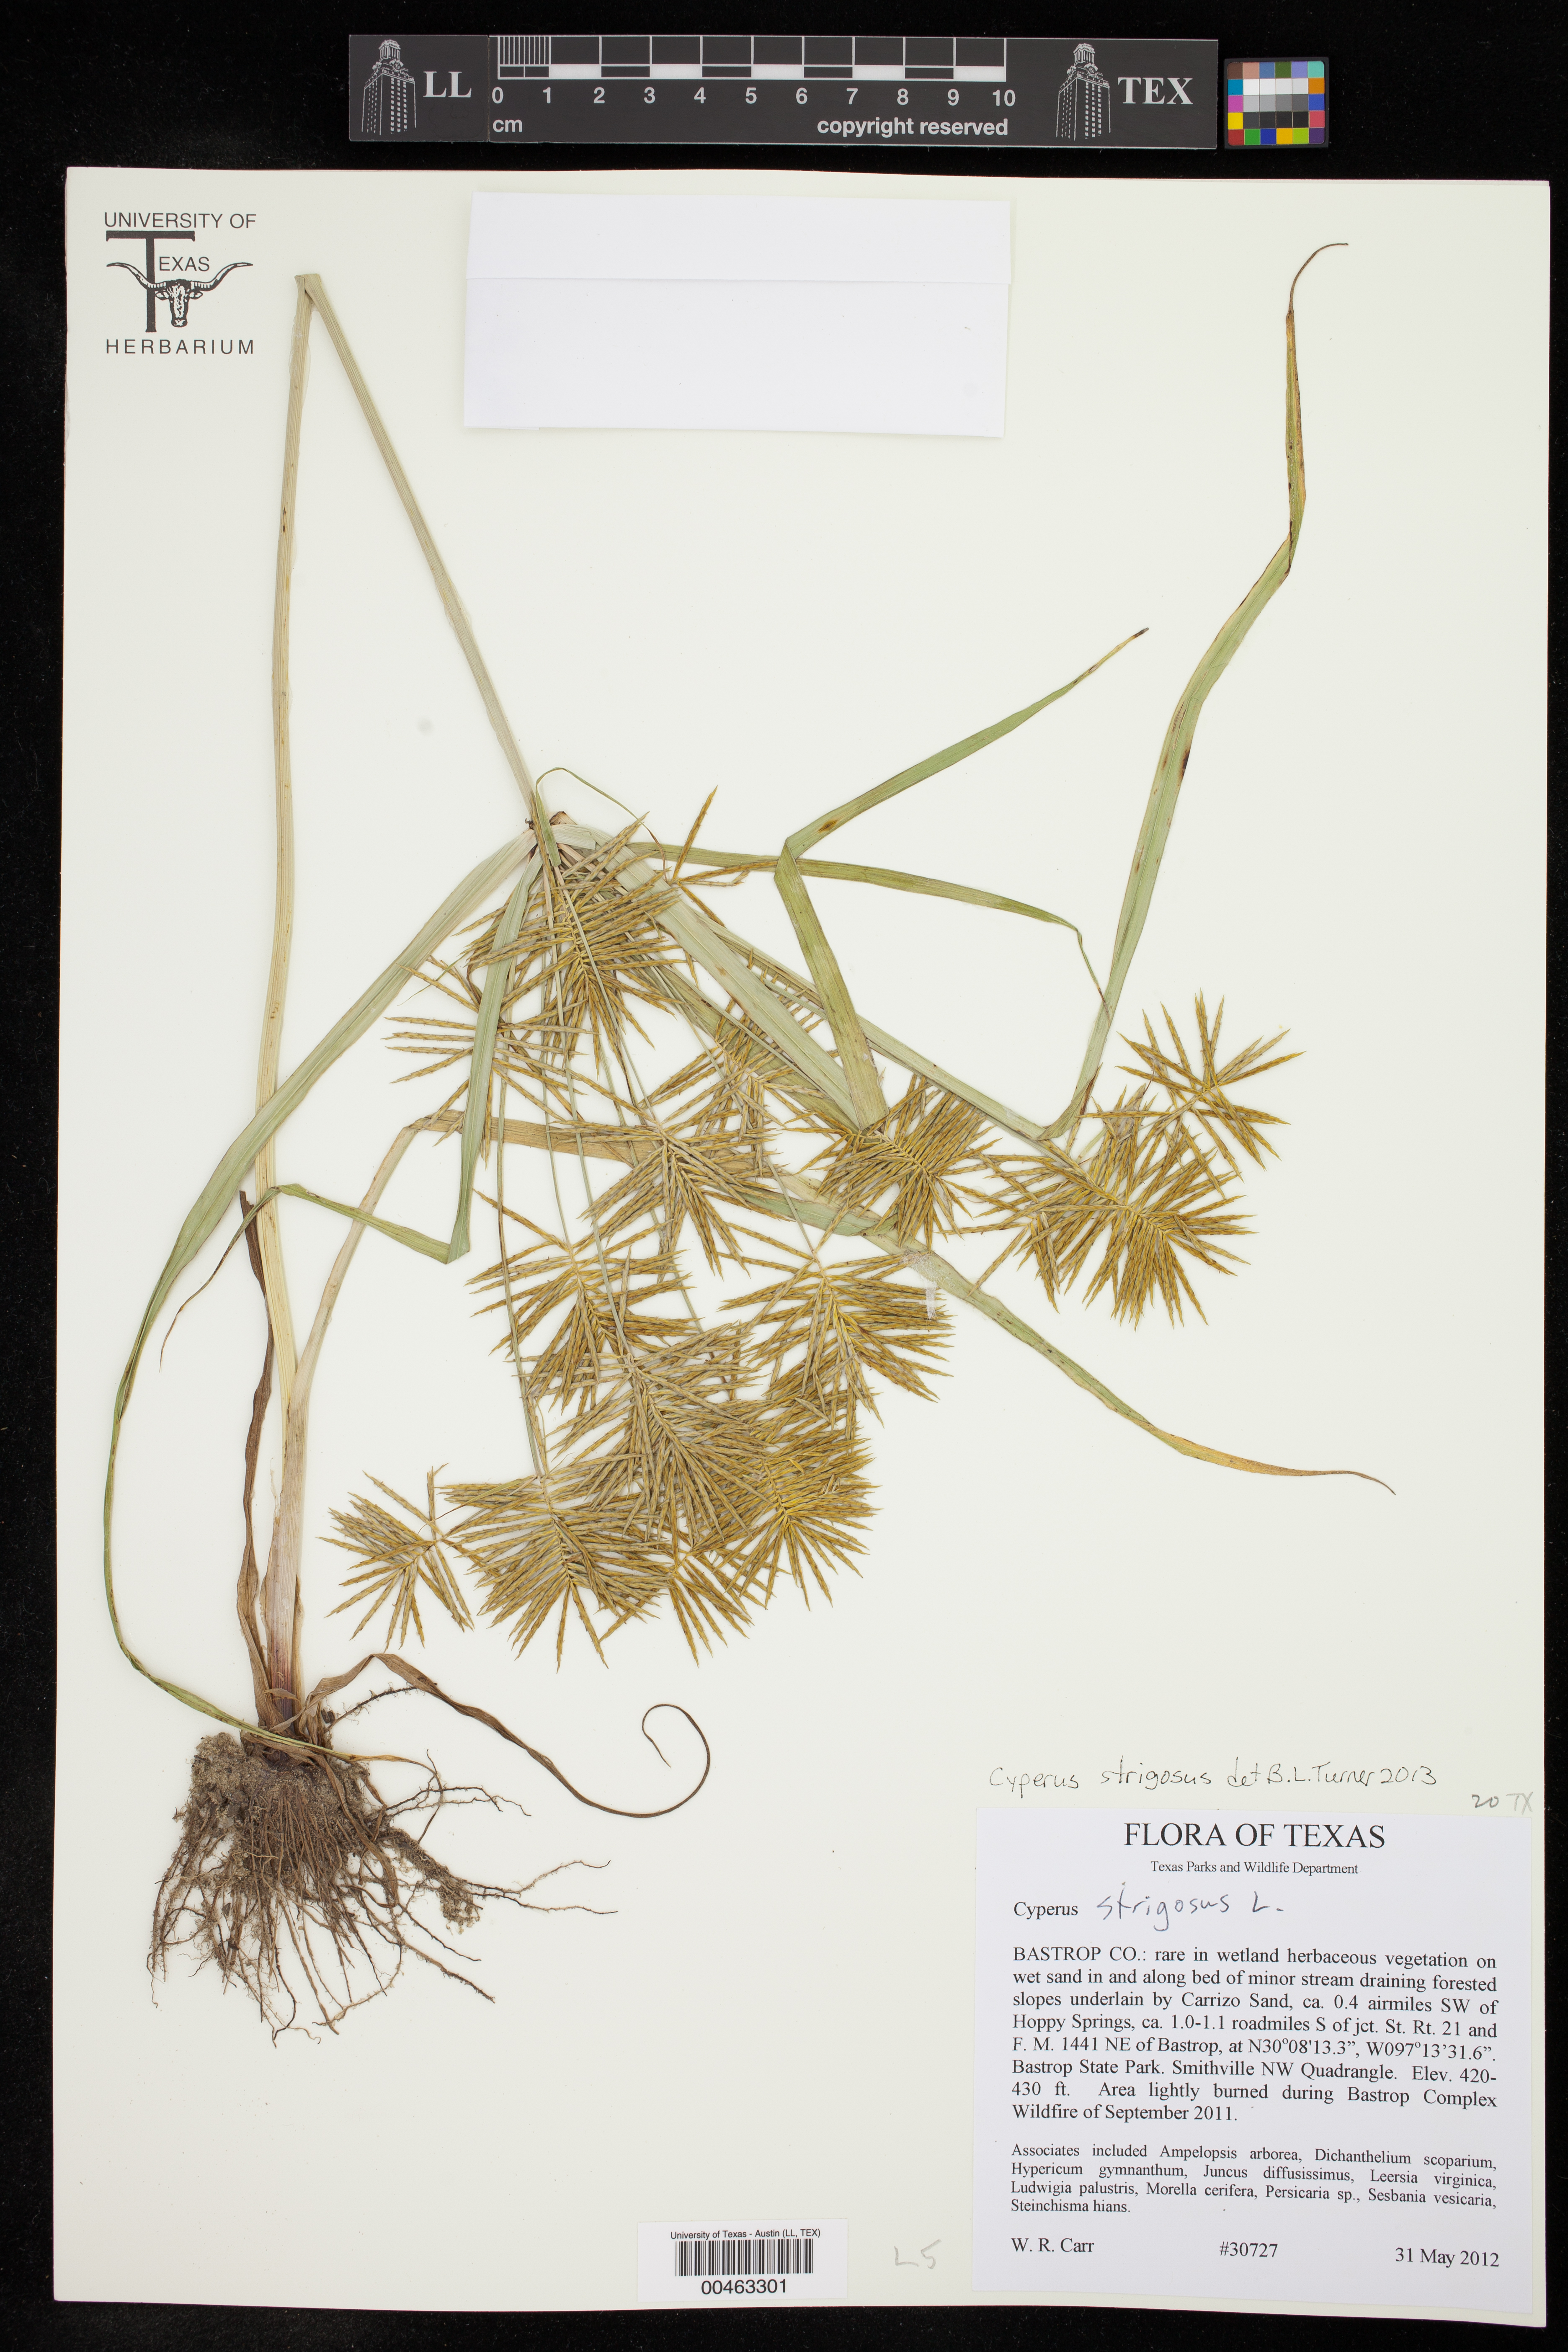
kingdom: Plantae
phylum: Tracheophyta
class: Liliopsida
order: Poales
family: Cyperaceae
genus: Cyperus
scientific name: Cyperus strigosus
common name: False nutsedge
